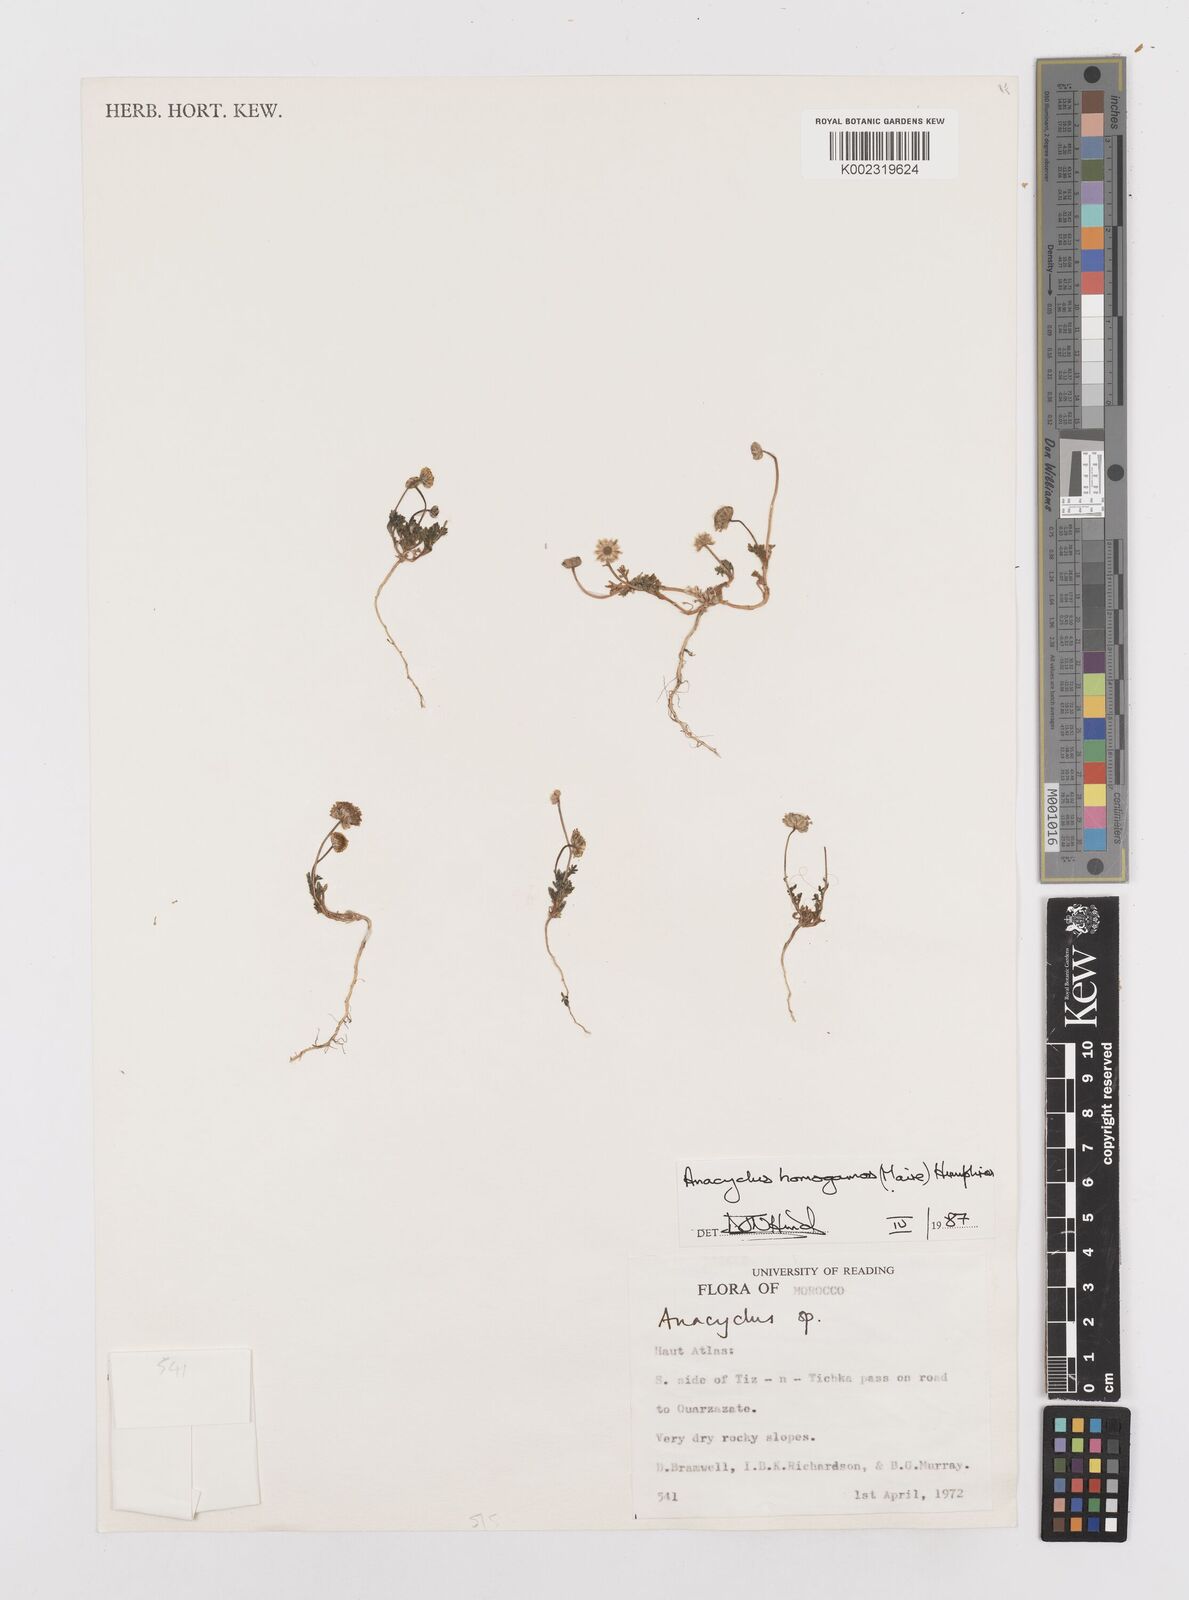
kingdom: Plantae
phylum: Tracheophyta
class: Magnoliopsida
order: Asterales
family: Asteraceae
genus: Anacyclus
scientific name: Anacyclus homogamos
